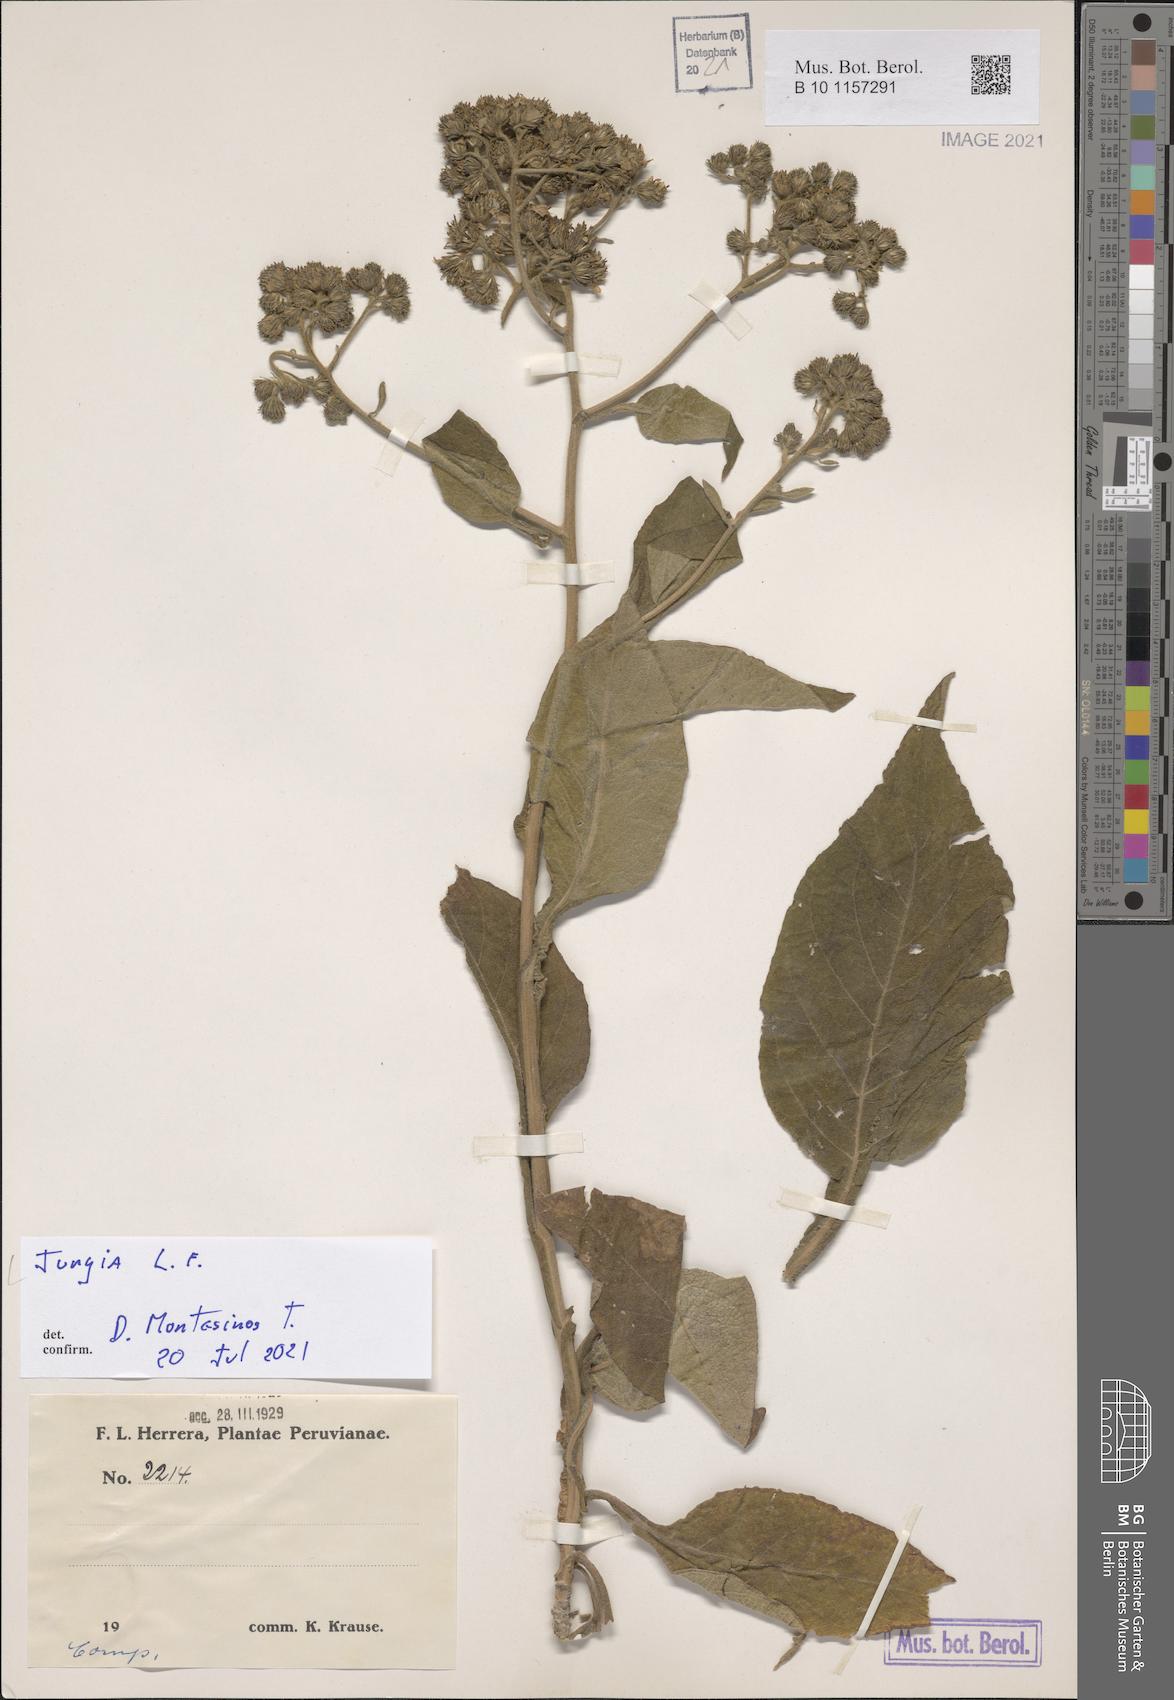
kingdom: Plantae
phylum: Tracheophyta
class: Magnoliopsida
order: Asterales
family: Asteraceae
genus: Jungia
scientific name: Jungia
